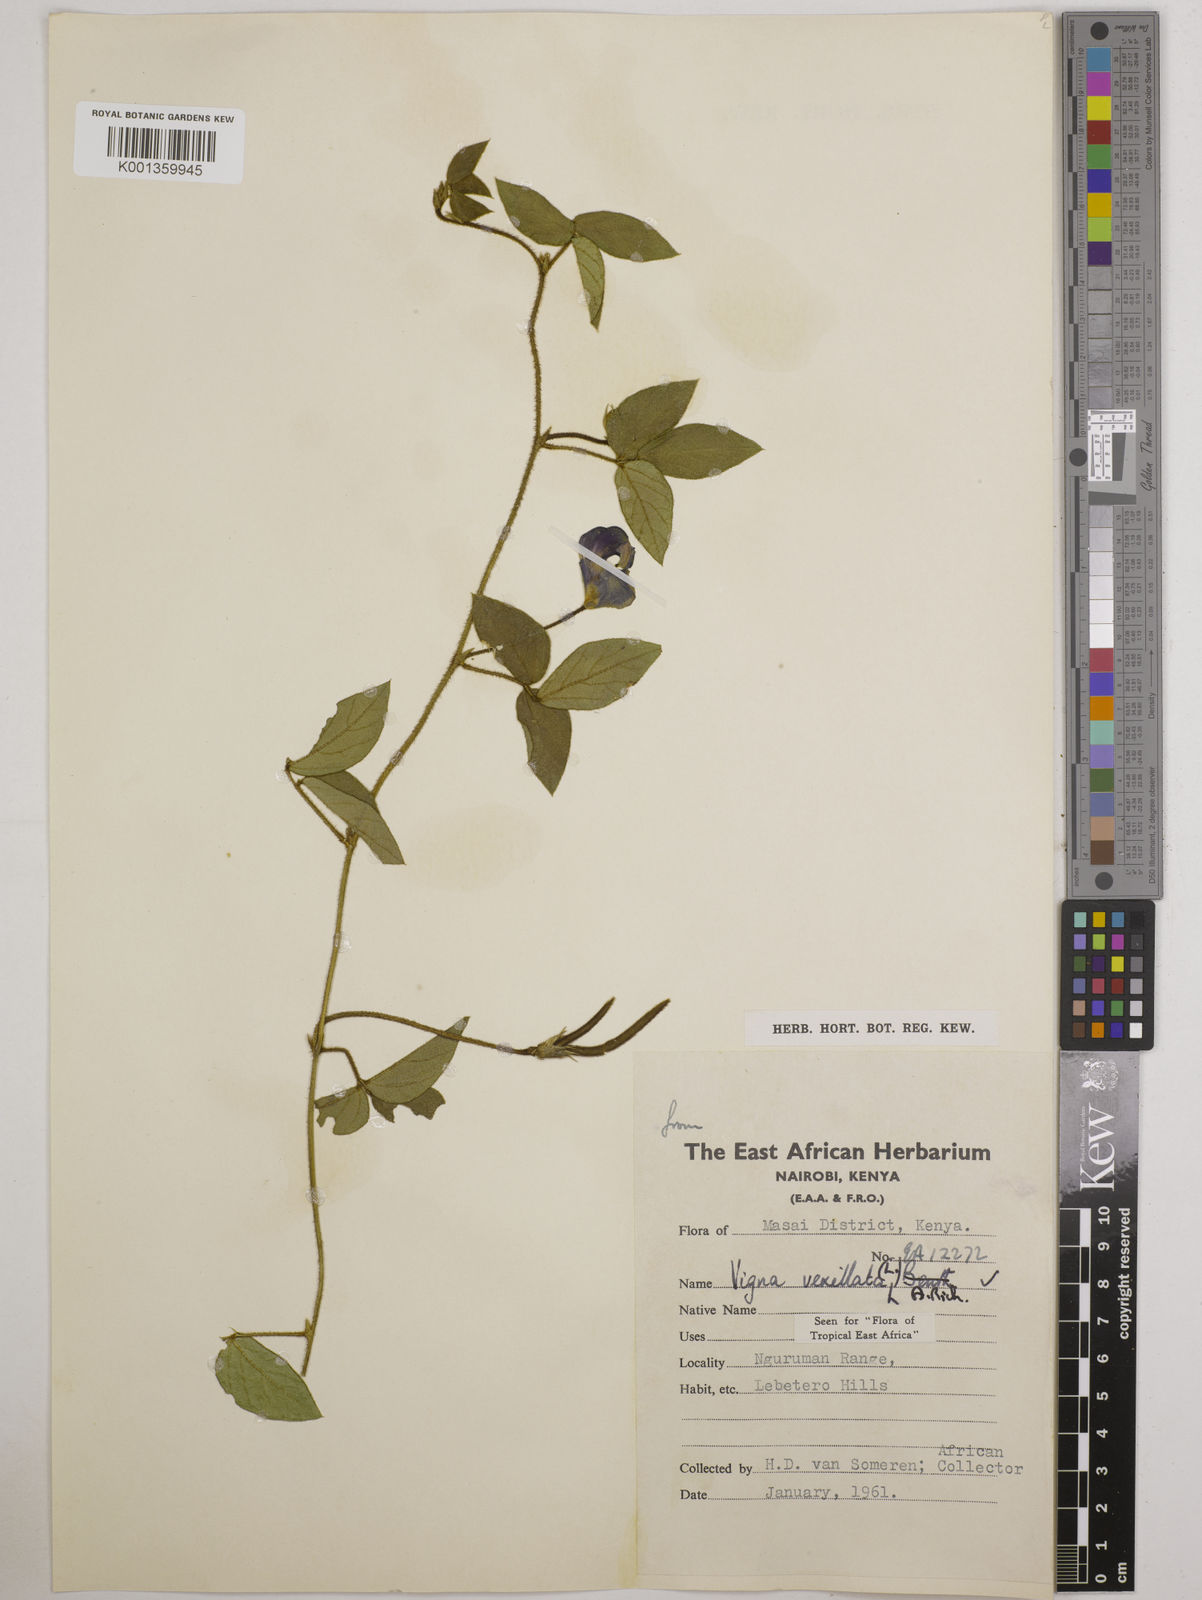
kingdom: Plantae
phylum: Tracheophyta
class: Magnoliopsida
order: Fabales
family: Fabaceae
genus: Vigna
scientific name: Vigna vexillata
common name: Zombi pea
